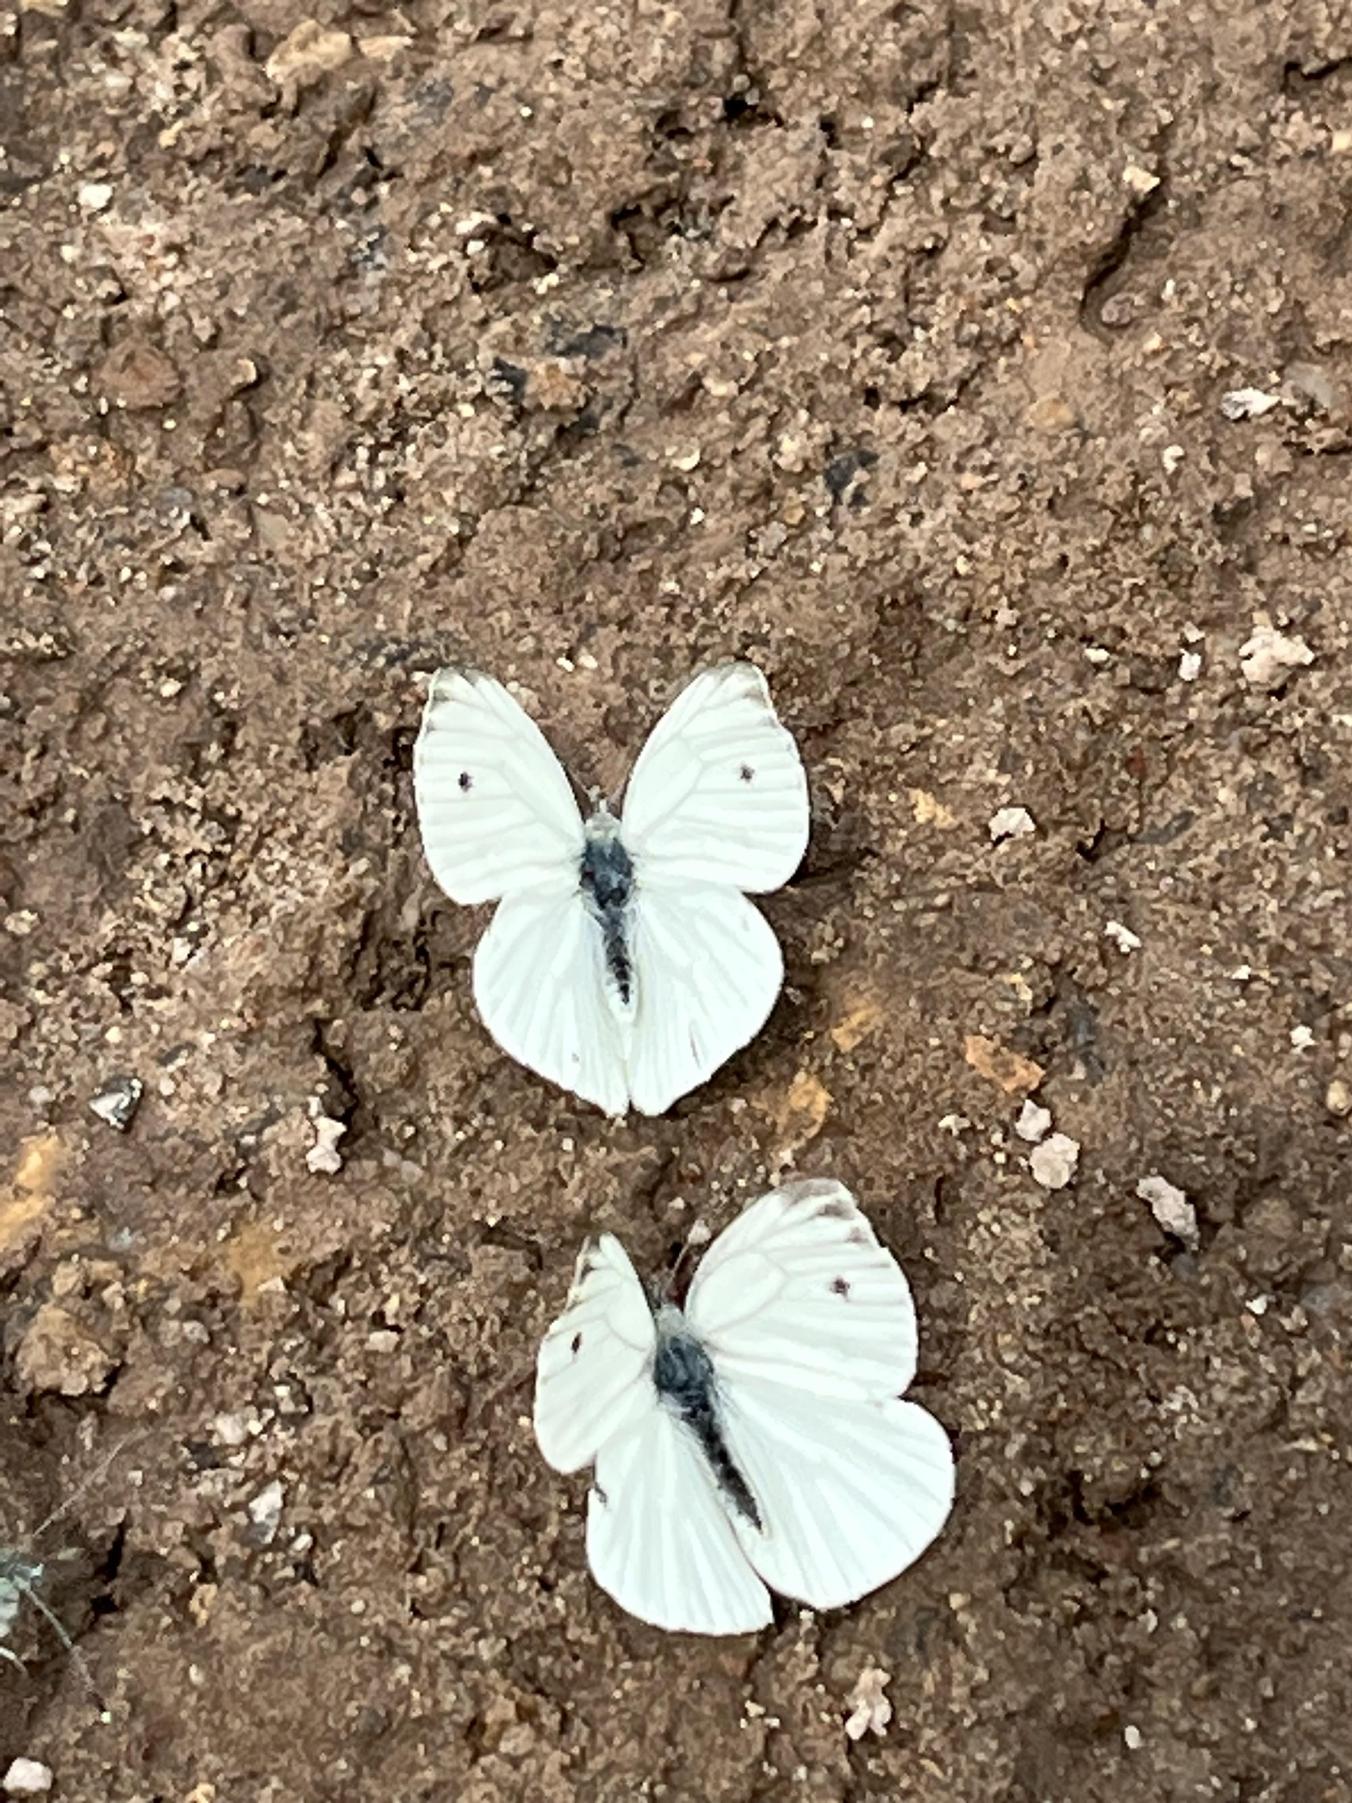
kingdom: Animalia
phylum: Arthropoda
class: Insecta
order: Lepidoptera
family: Pieridae
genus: Pieris
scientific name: Pieris napi
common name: Grønåret kålsommerfugl
